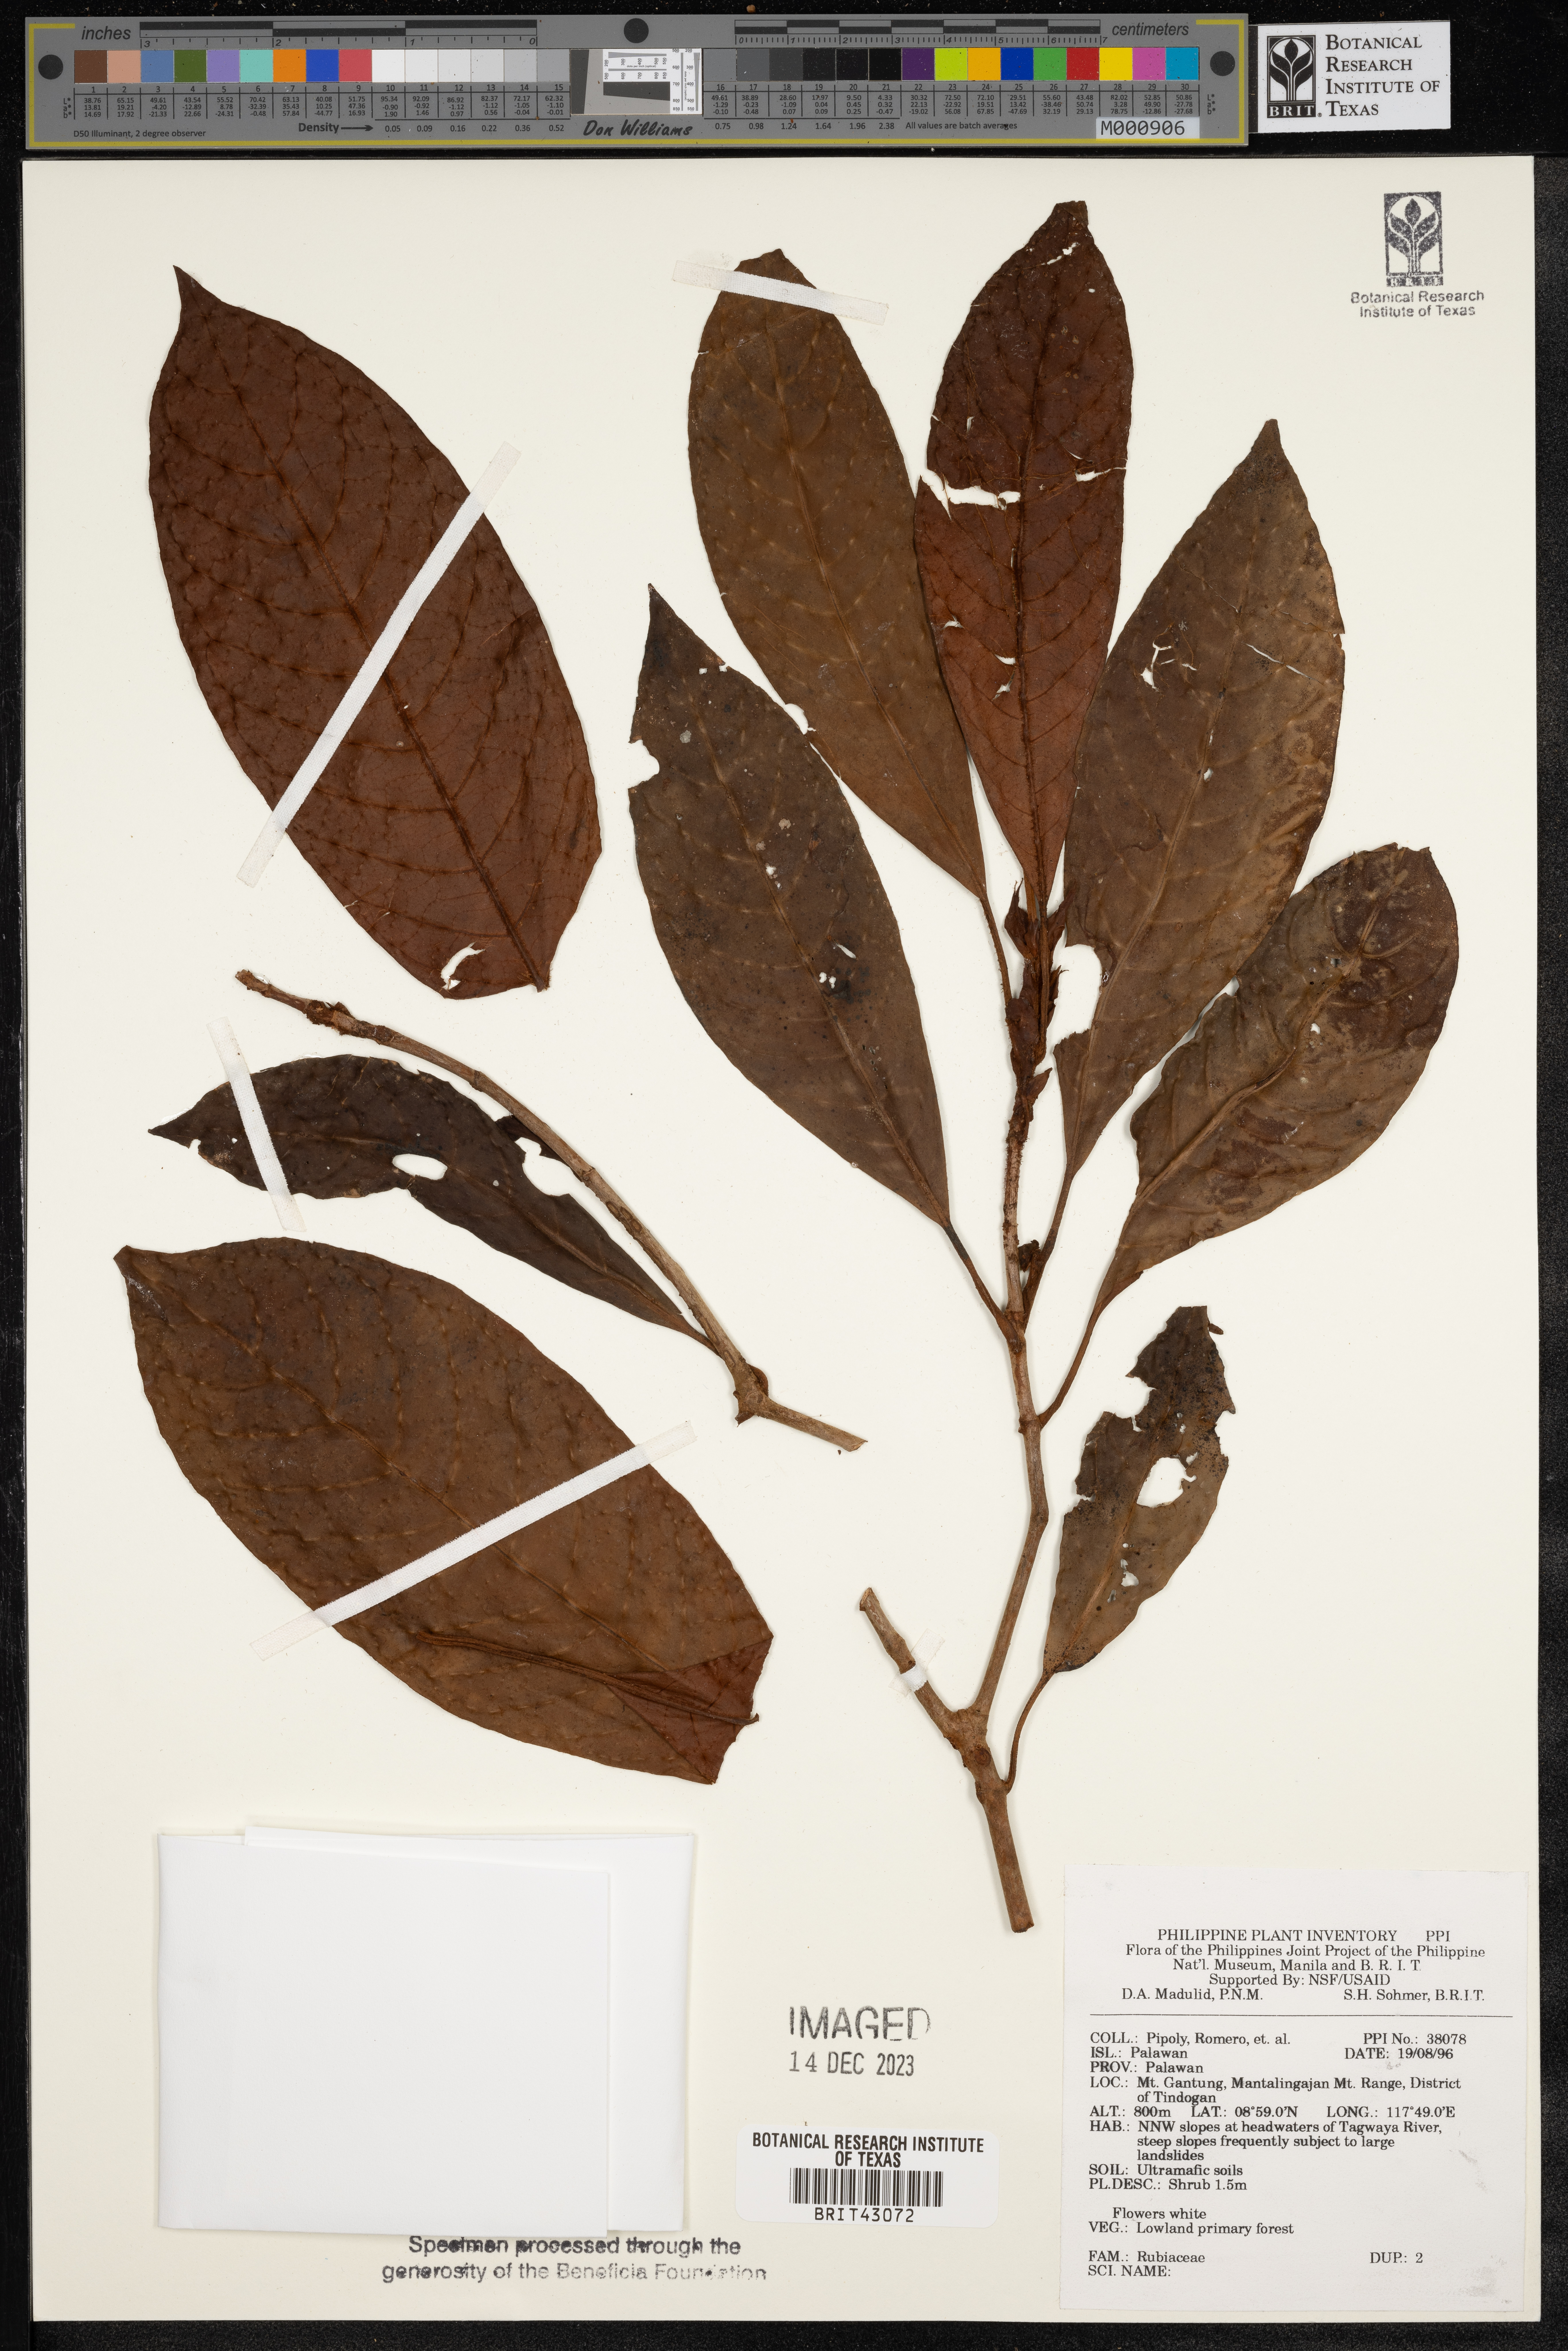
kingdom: Plantae
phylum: Tracheophyta
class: Magnoliopsida
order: Gentianales
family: Rubiaceae
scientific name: Rubiaceae
